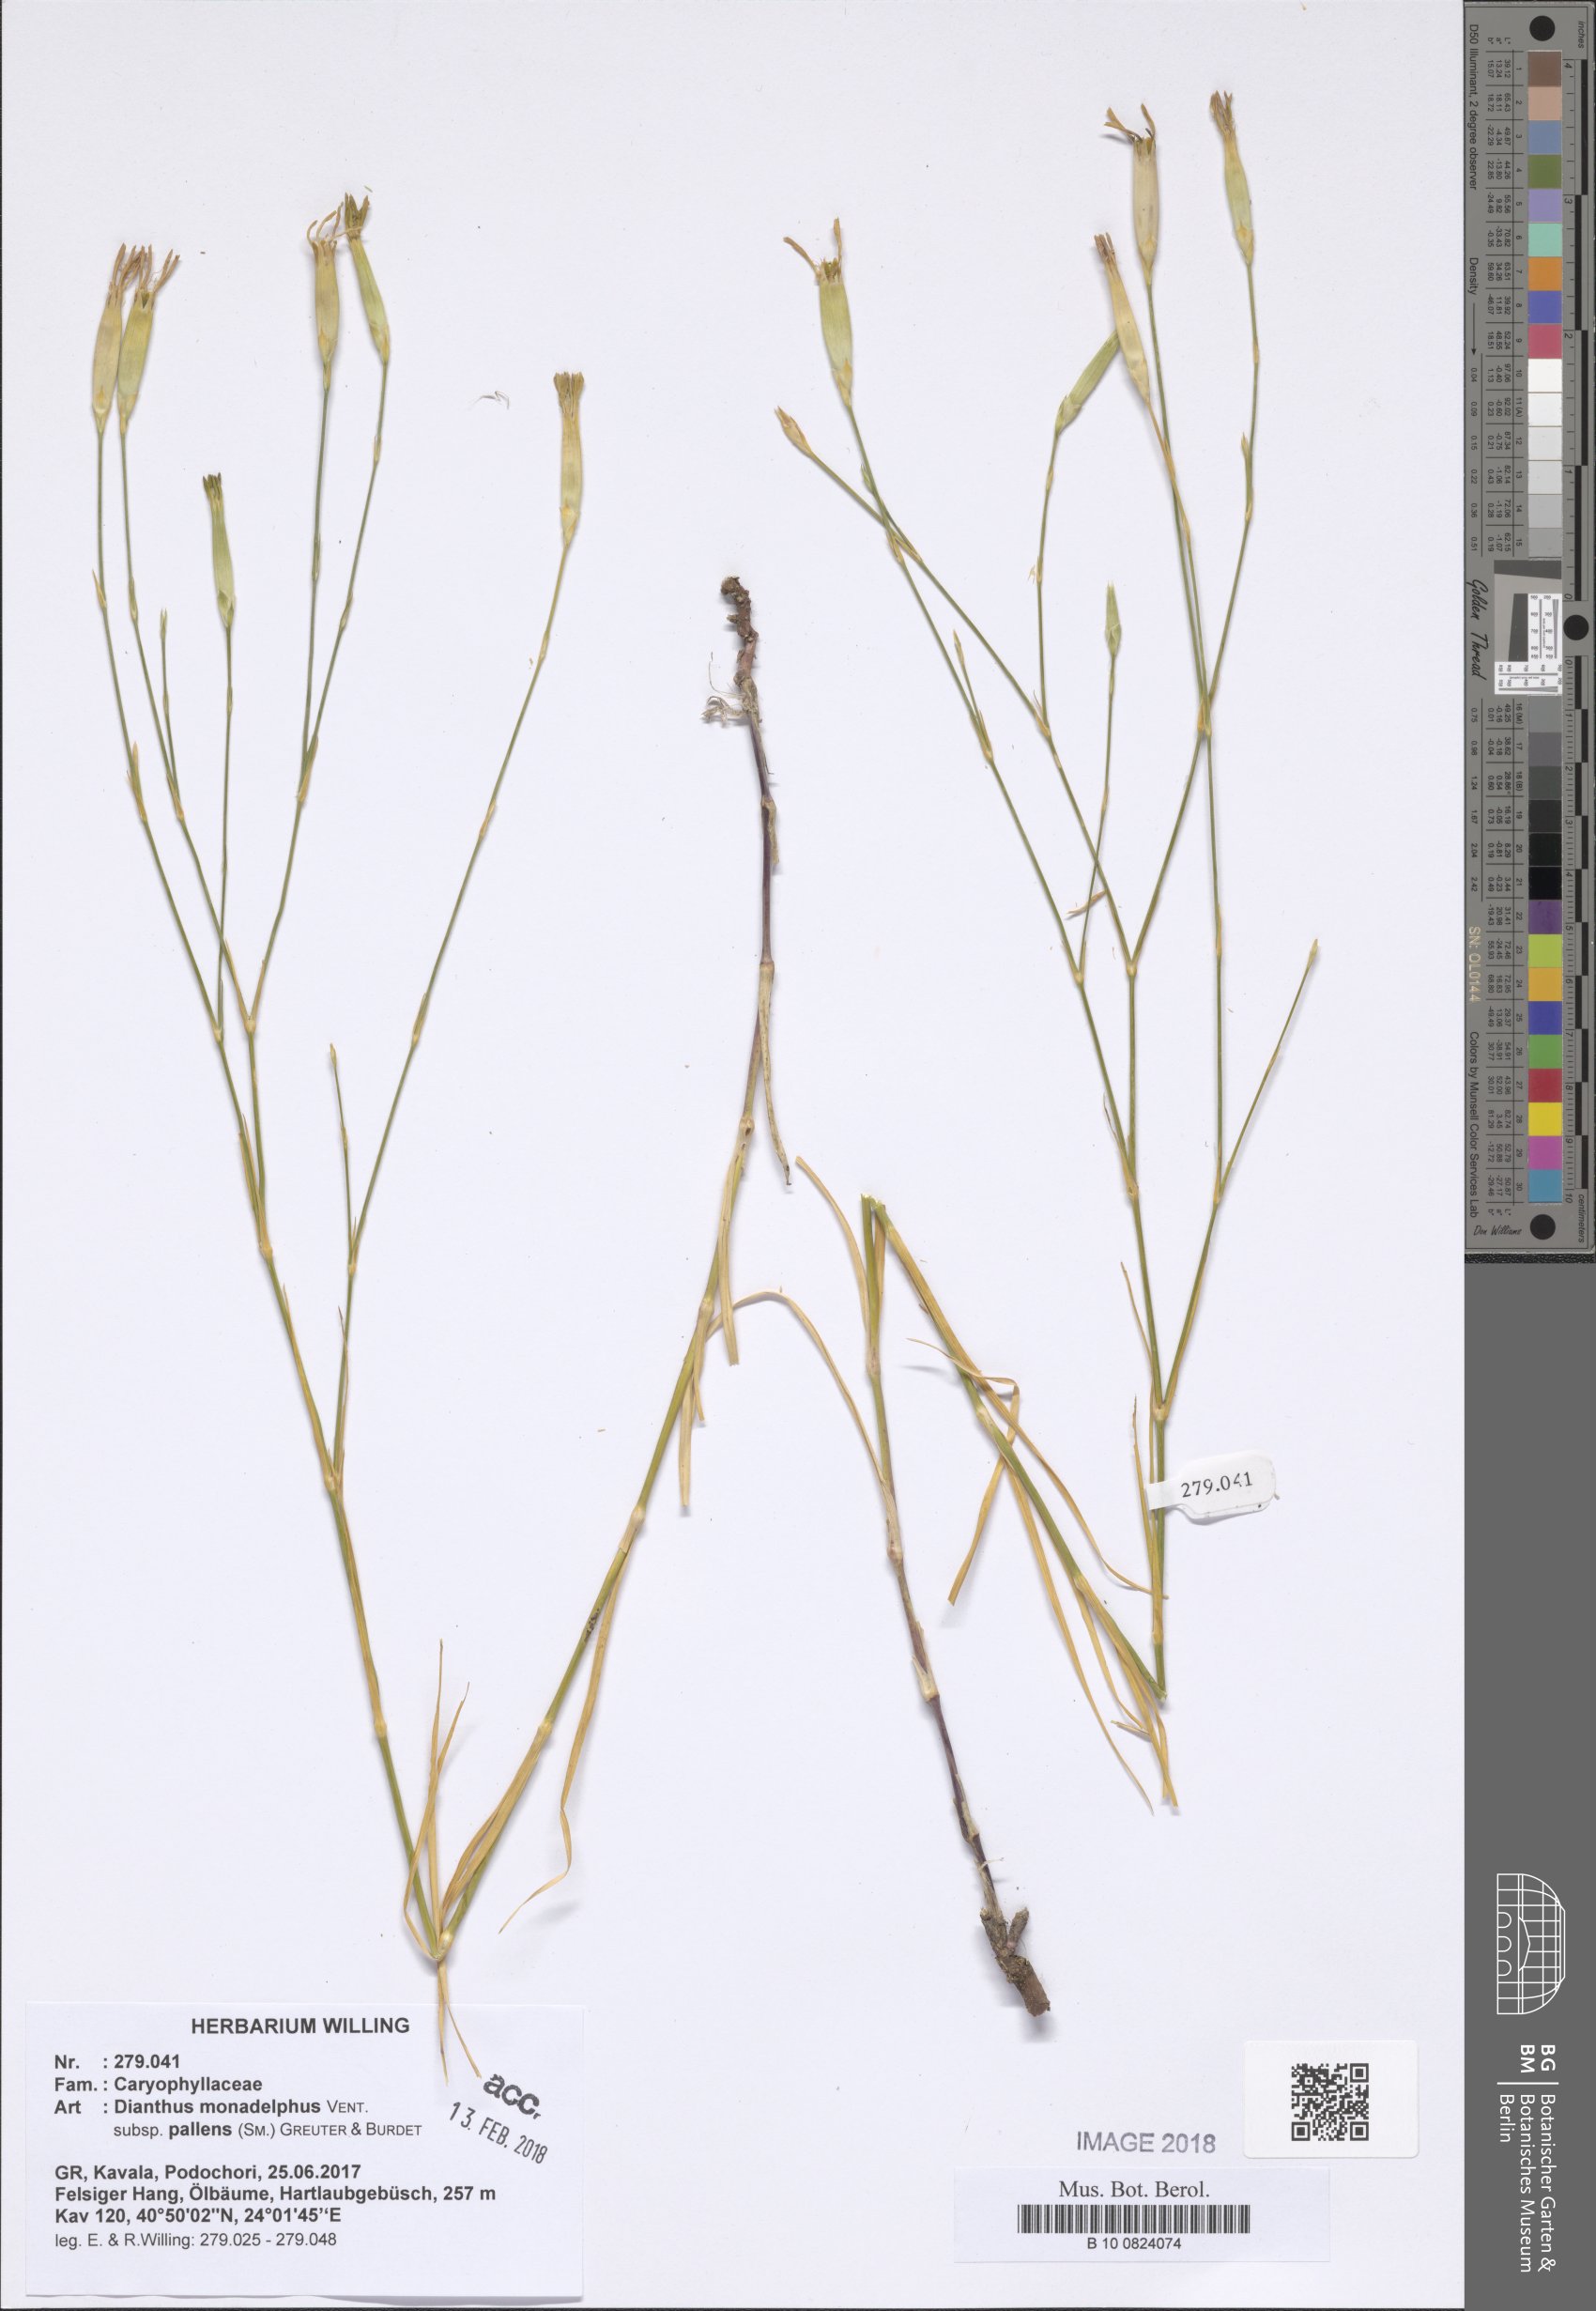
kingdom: Plantae
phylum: Tracheophyta
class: Magnoliopsida
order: Caryophyllales
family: Caryophyllaceae
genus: Dianthus
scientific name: Dianthus monadelphus
